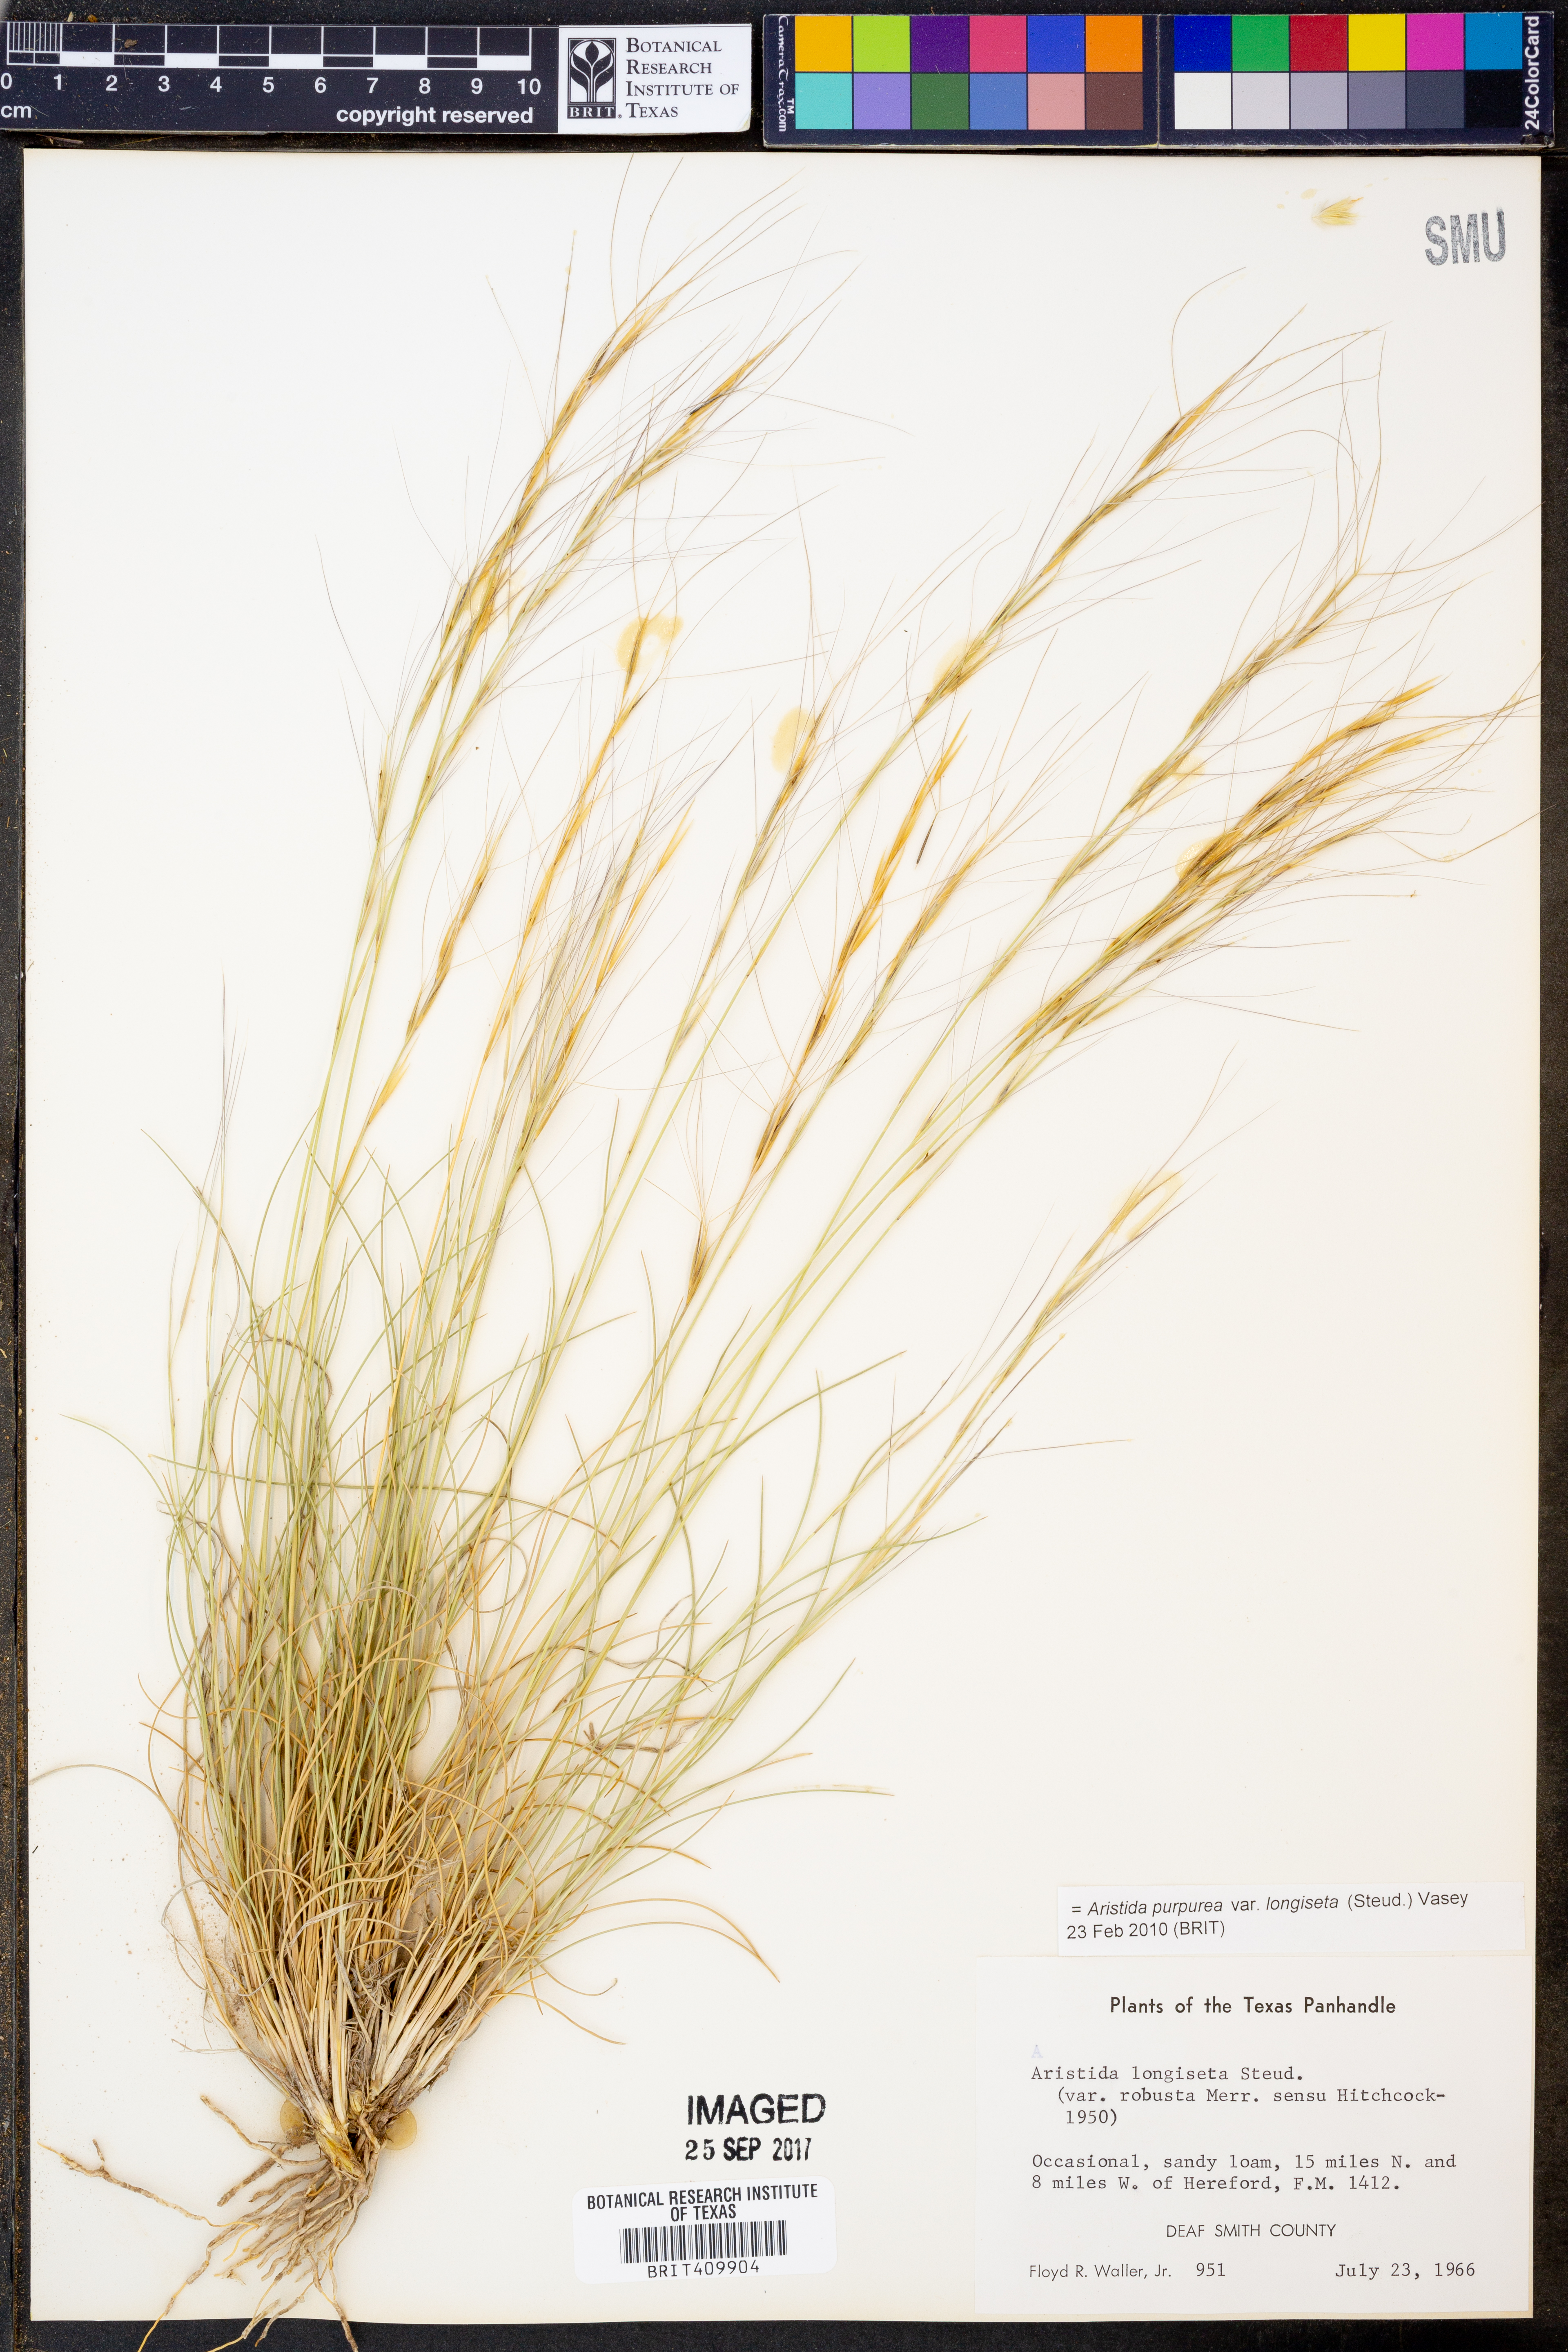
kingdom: Plantae
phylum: Tracheophyta
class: Liliopsida
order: Poales
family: Poaceae
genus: Aristida
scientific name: Aristida longiseta
